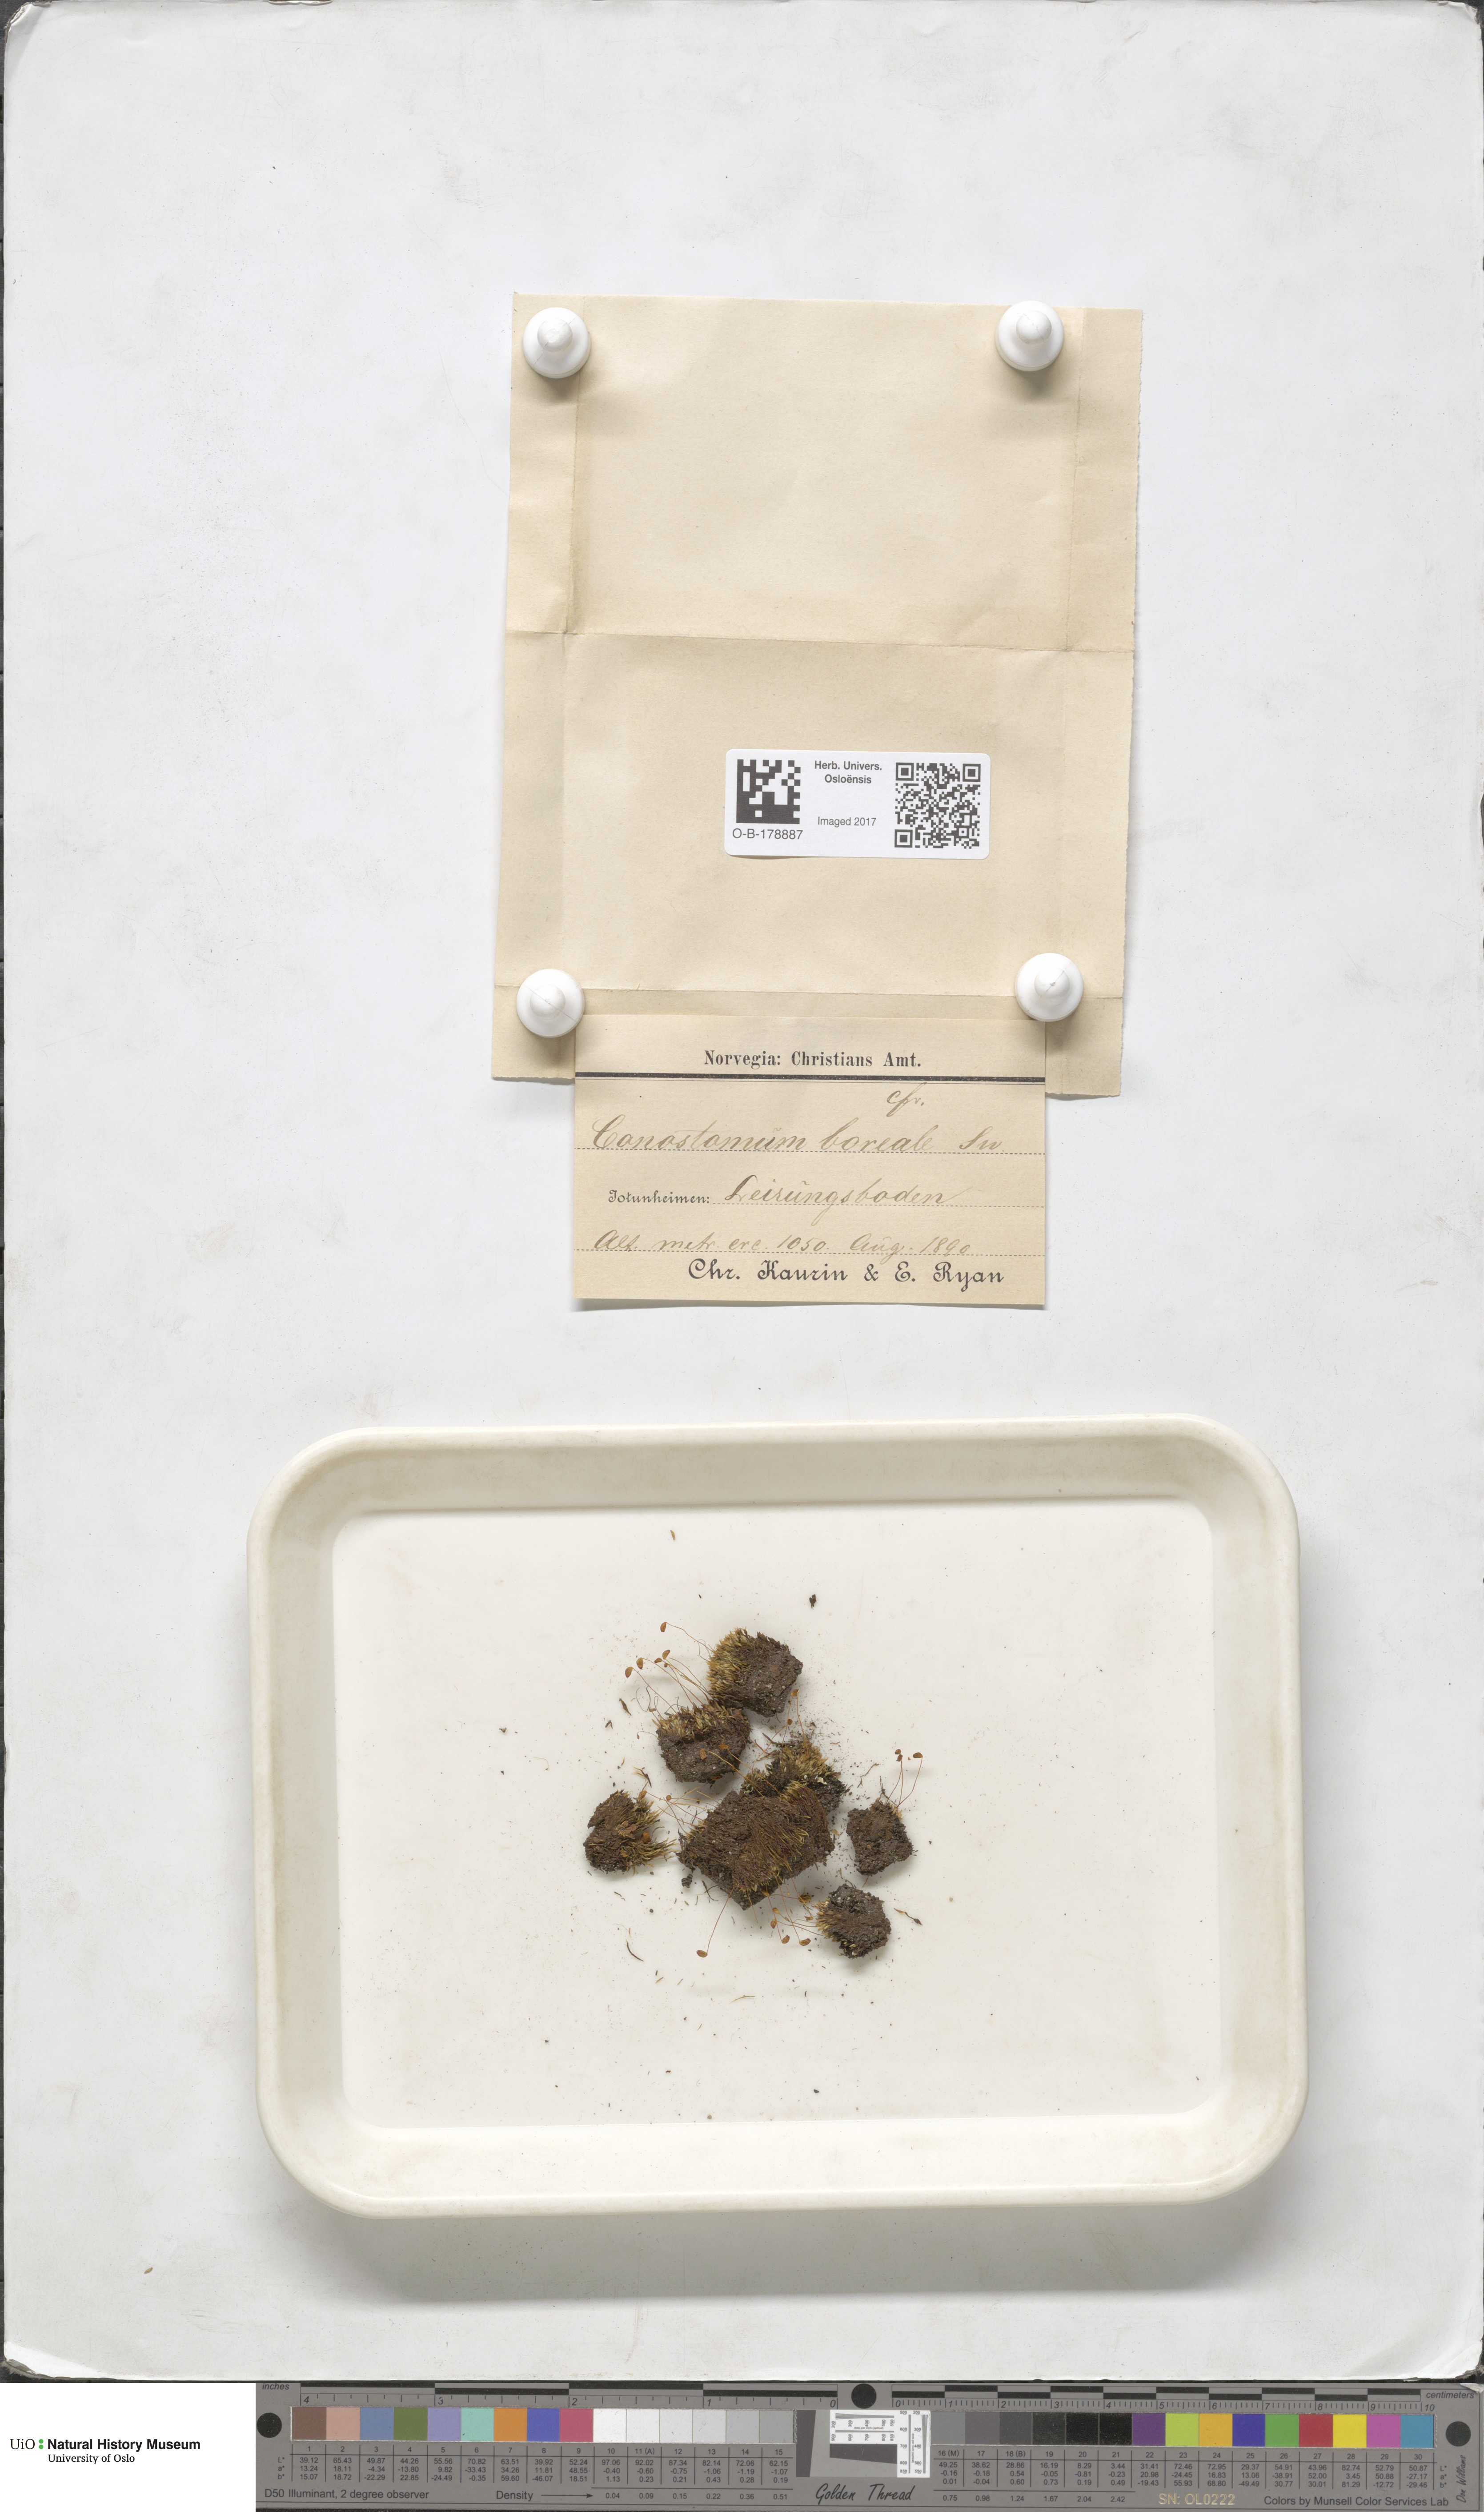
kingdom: Plantae
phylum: Bryophyta
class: Bryopsida
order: Bartramiales
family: Bartramiaceae
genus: Conostomum
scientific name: Conostomum tetragonum
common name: Helmet moss
